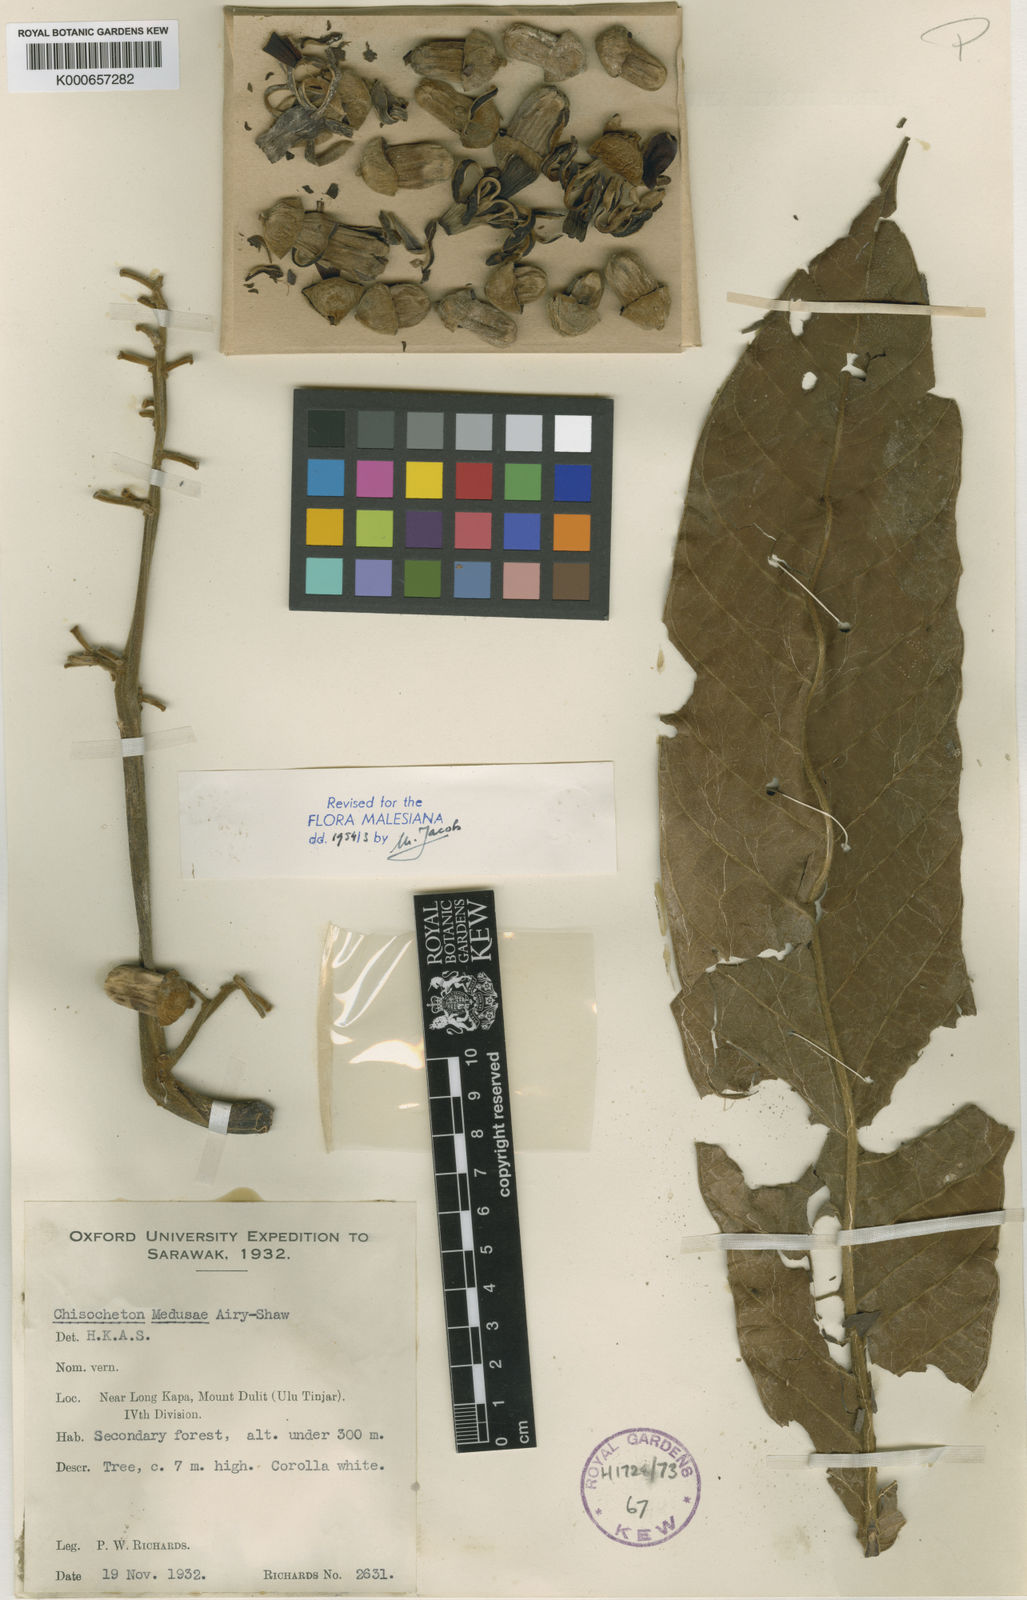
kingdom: Plantae
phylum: Tracheophyta
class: Magnoliopsida
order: Sapindales
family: Meliaceae
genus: Chisocheton
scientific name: Chisocheton medusae
